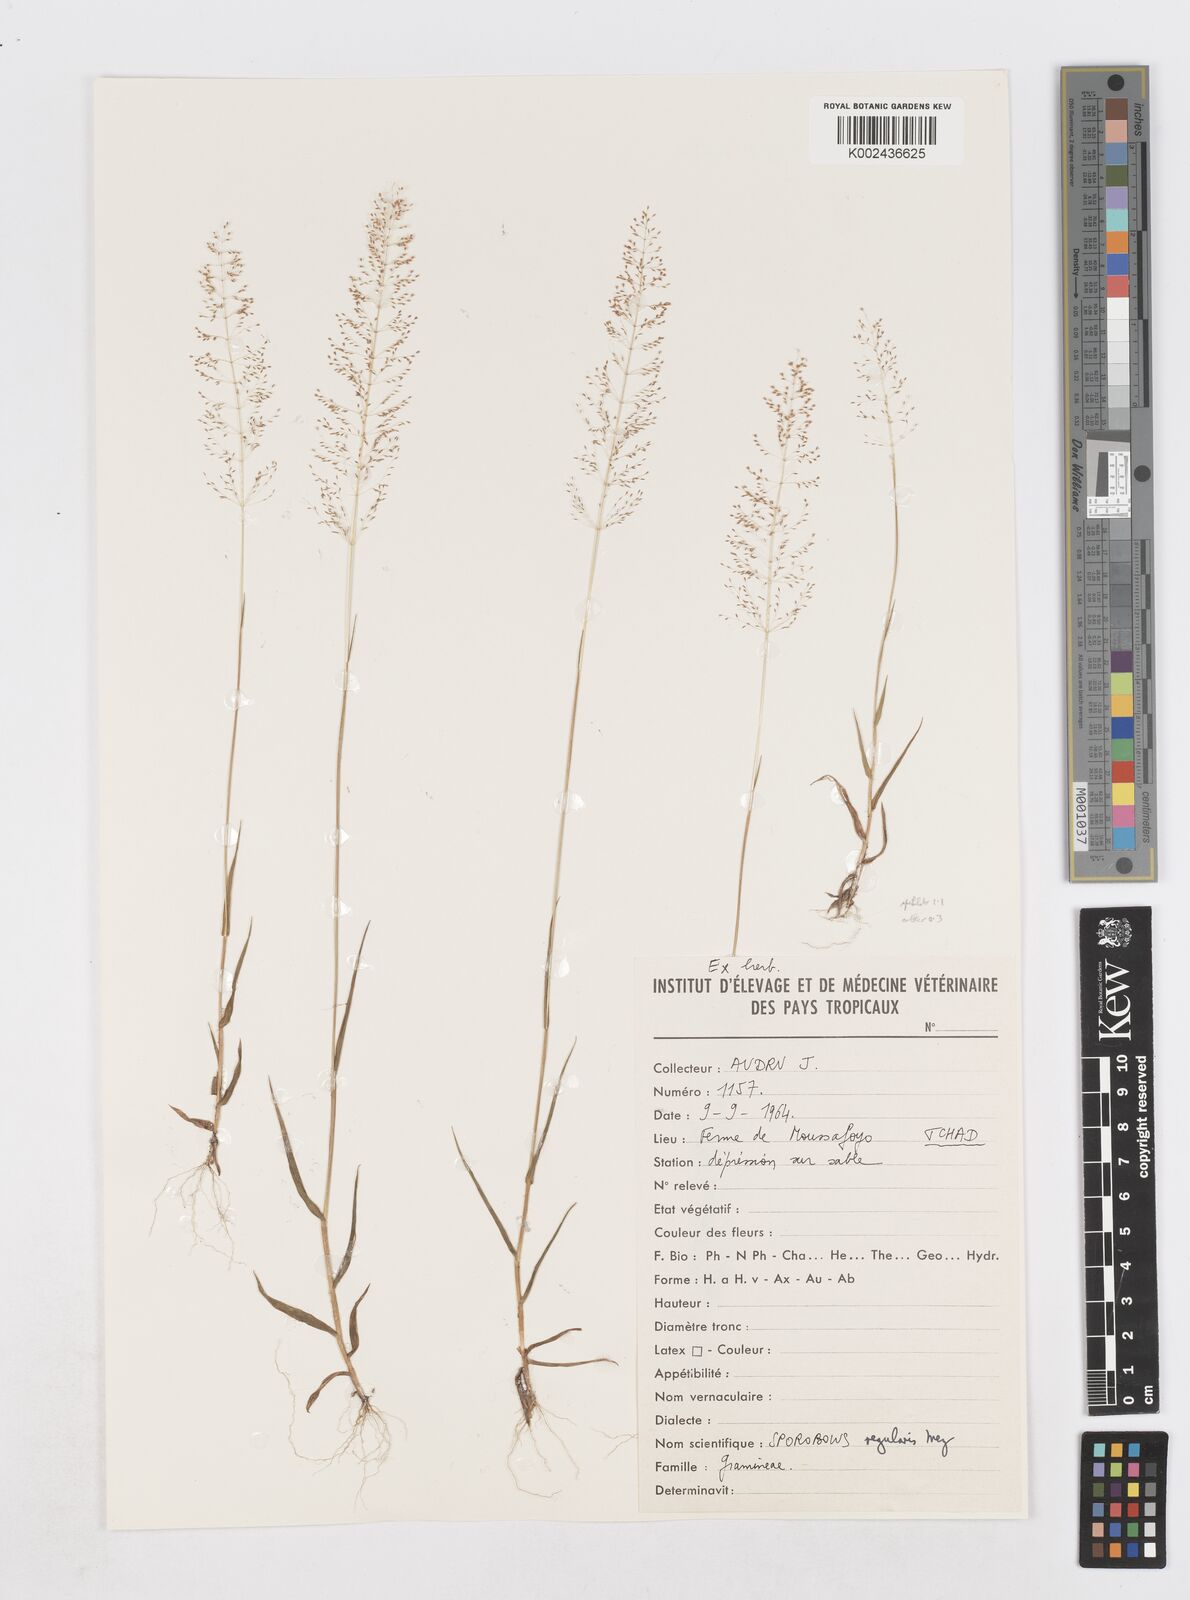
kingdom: Plantae
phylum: Tracheophyta
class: Liliopsida
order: Poales
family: Poaceae
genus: Sporobolus
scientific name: Sporobolus welwitschii
